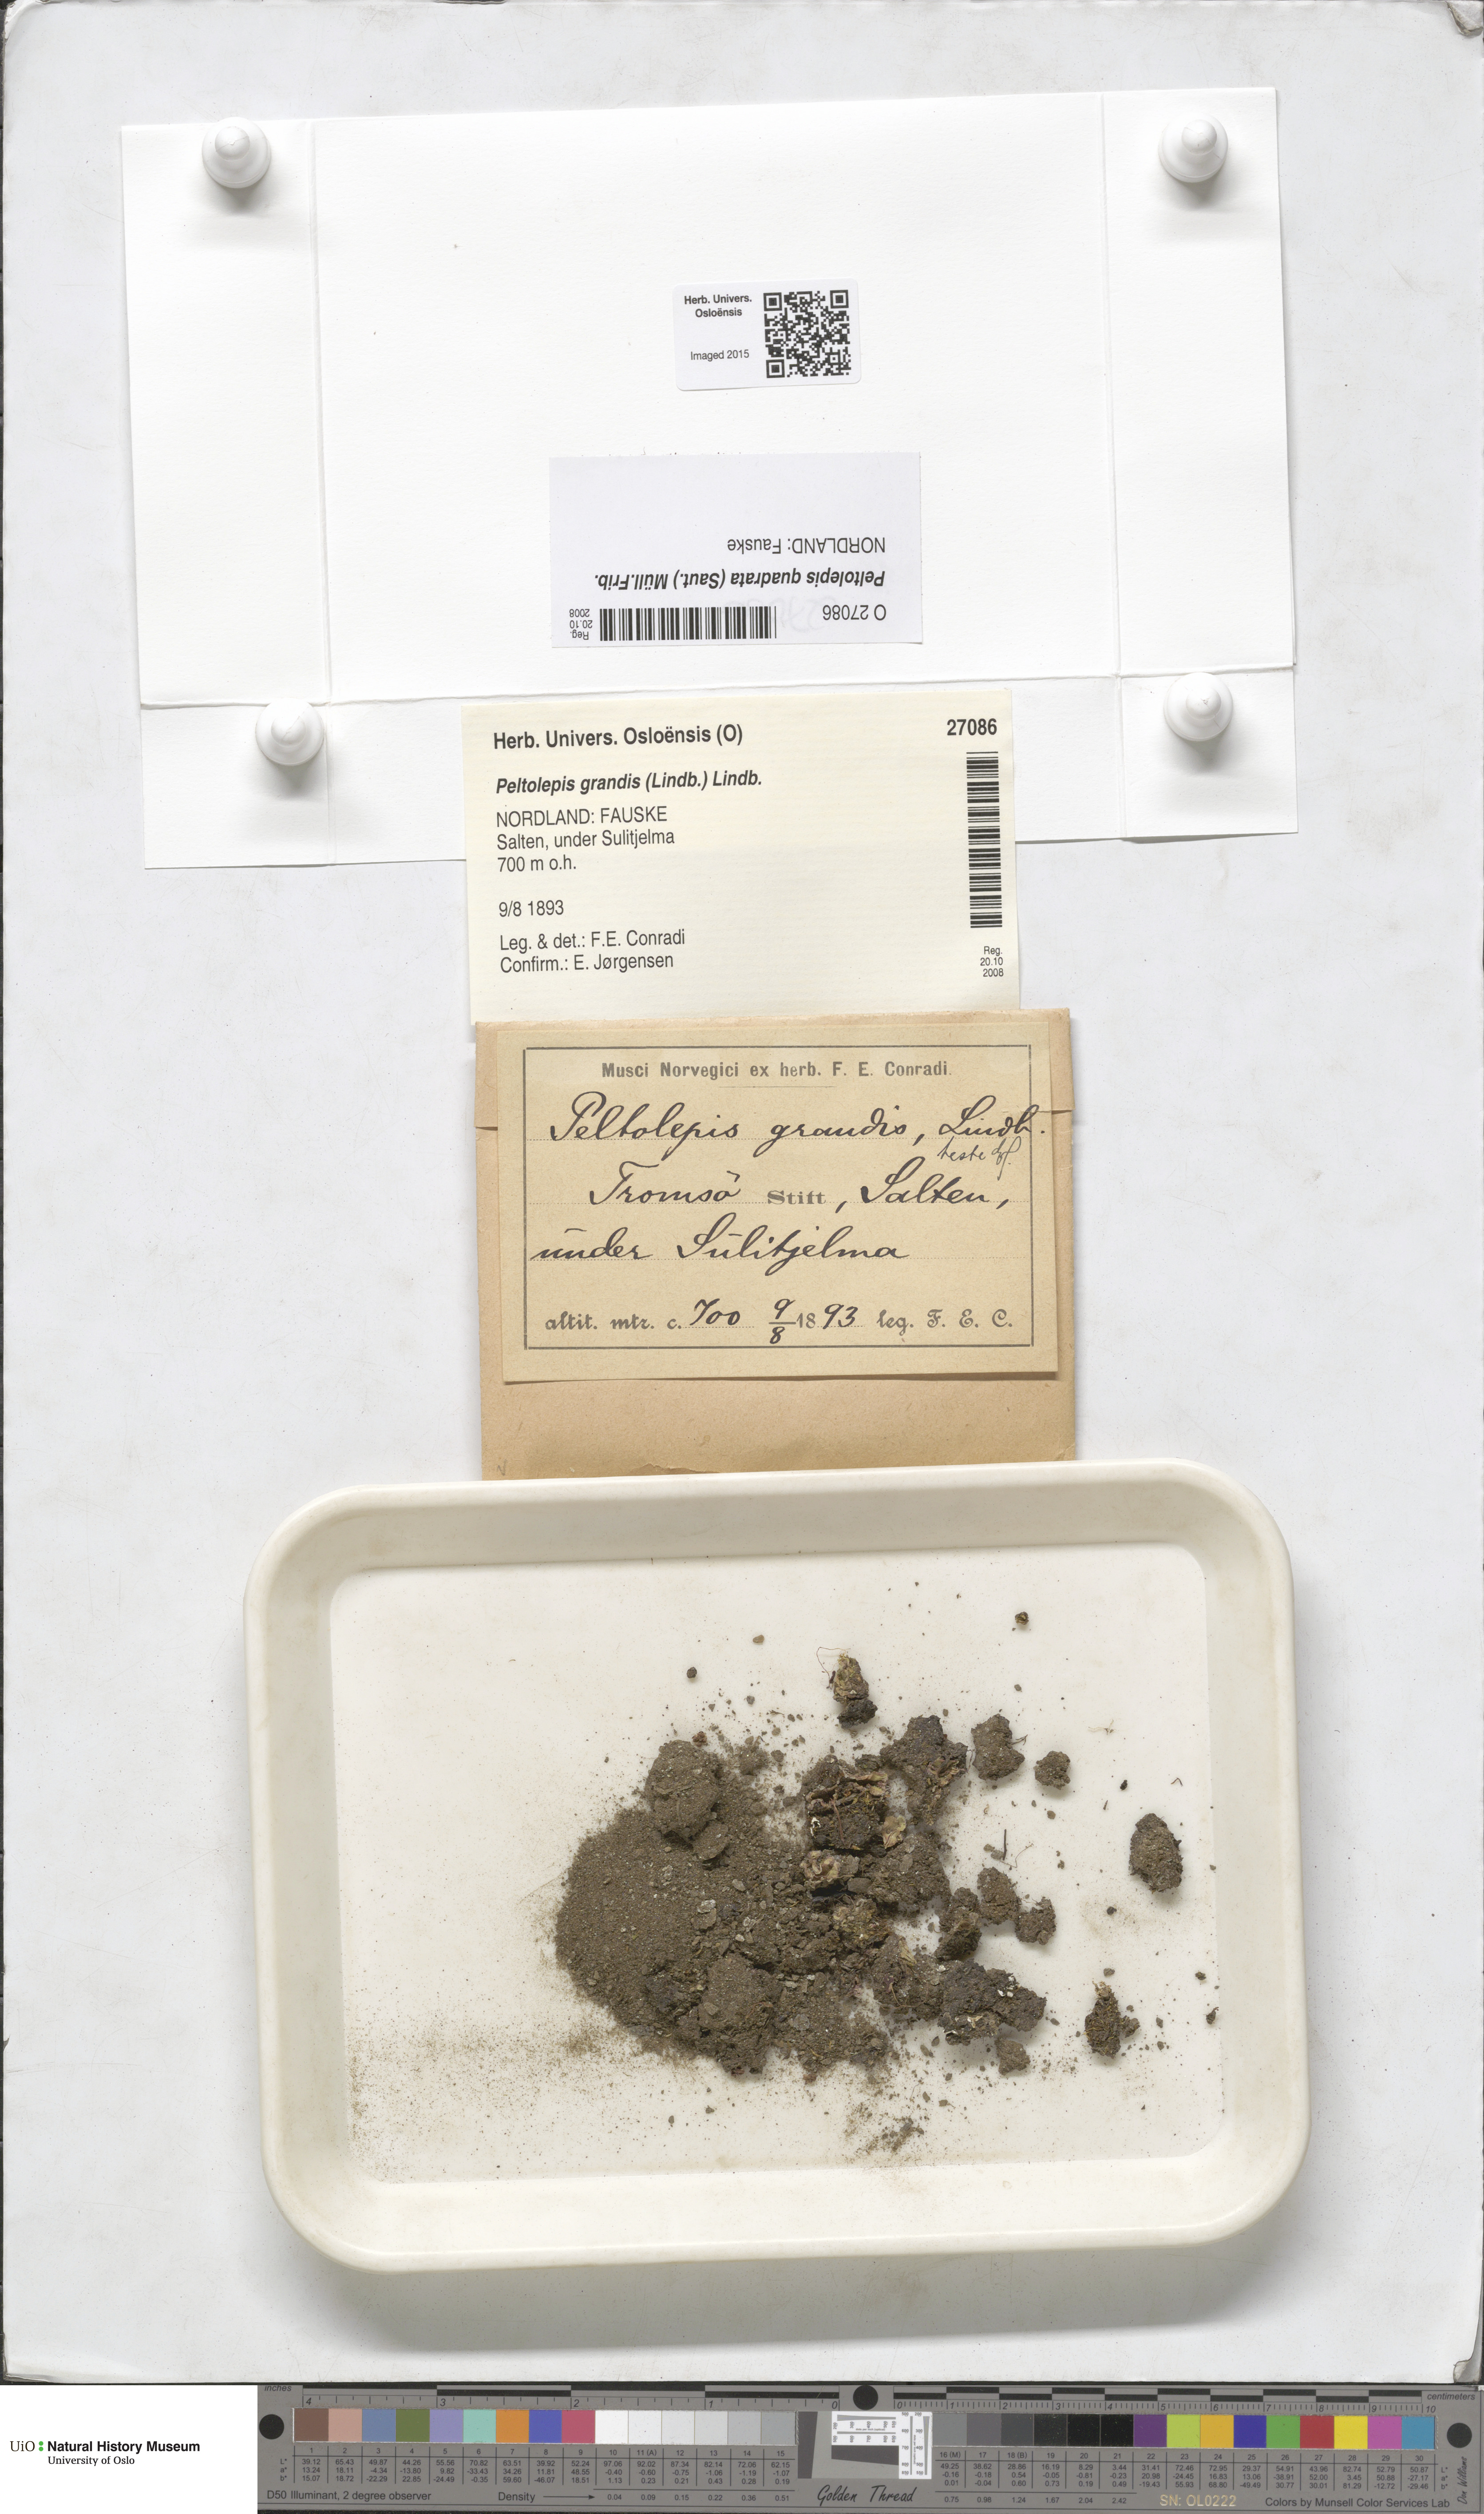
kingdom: Plantae
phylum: Marchantiophyta
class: Marchantiopsida
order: Marchantiales
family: Cleveaceae
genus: Peltolepis
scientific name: Peltolepis quadrata
